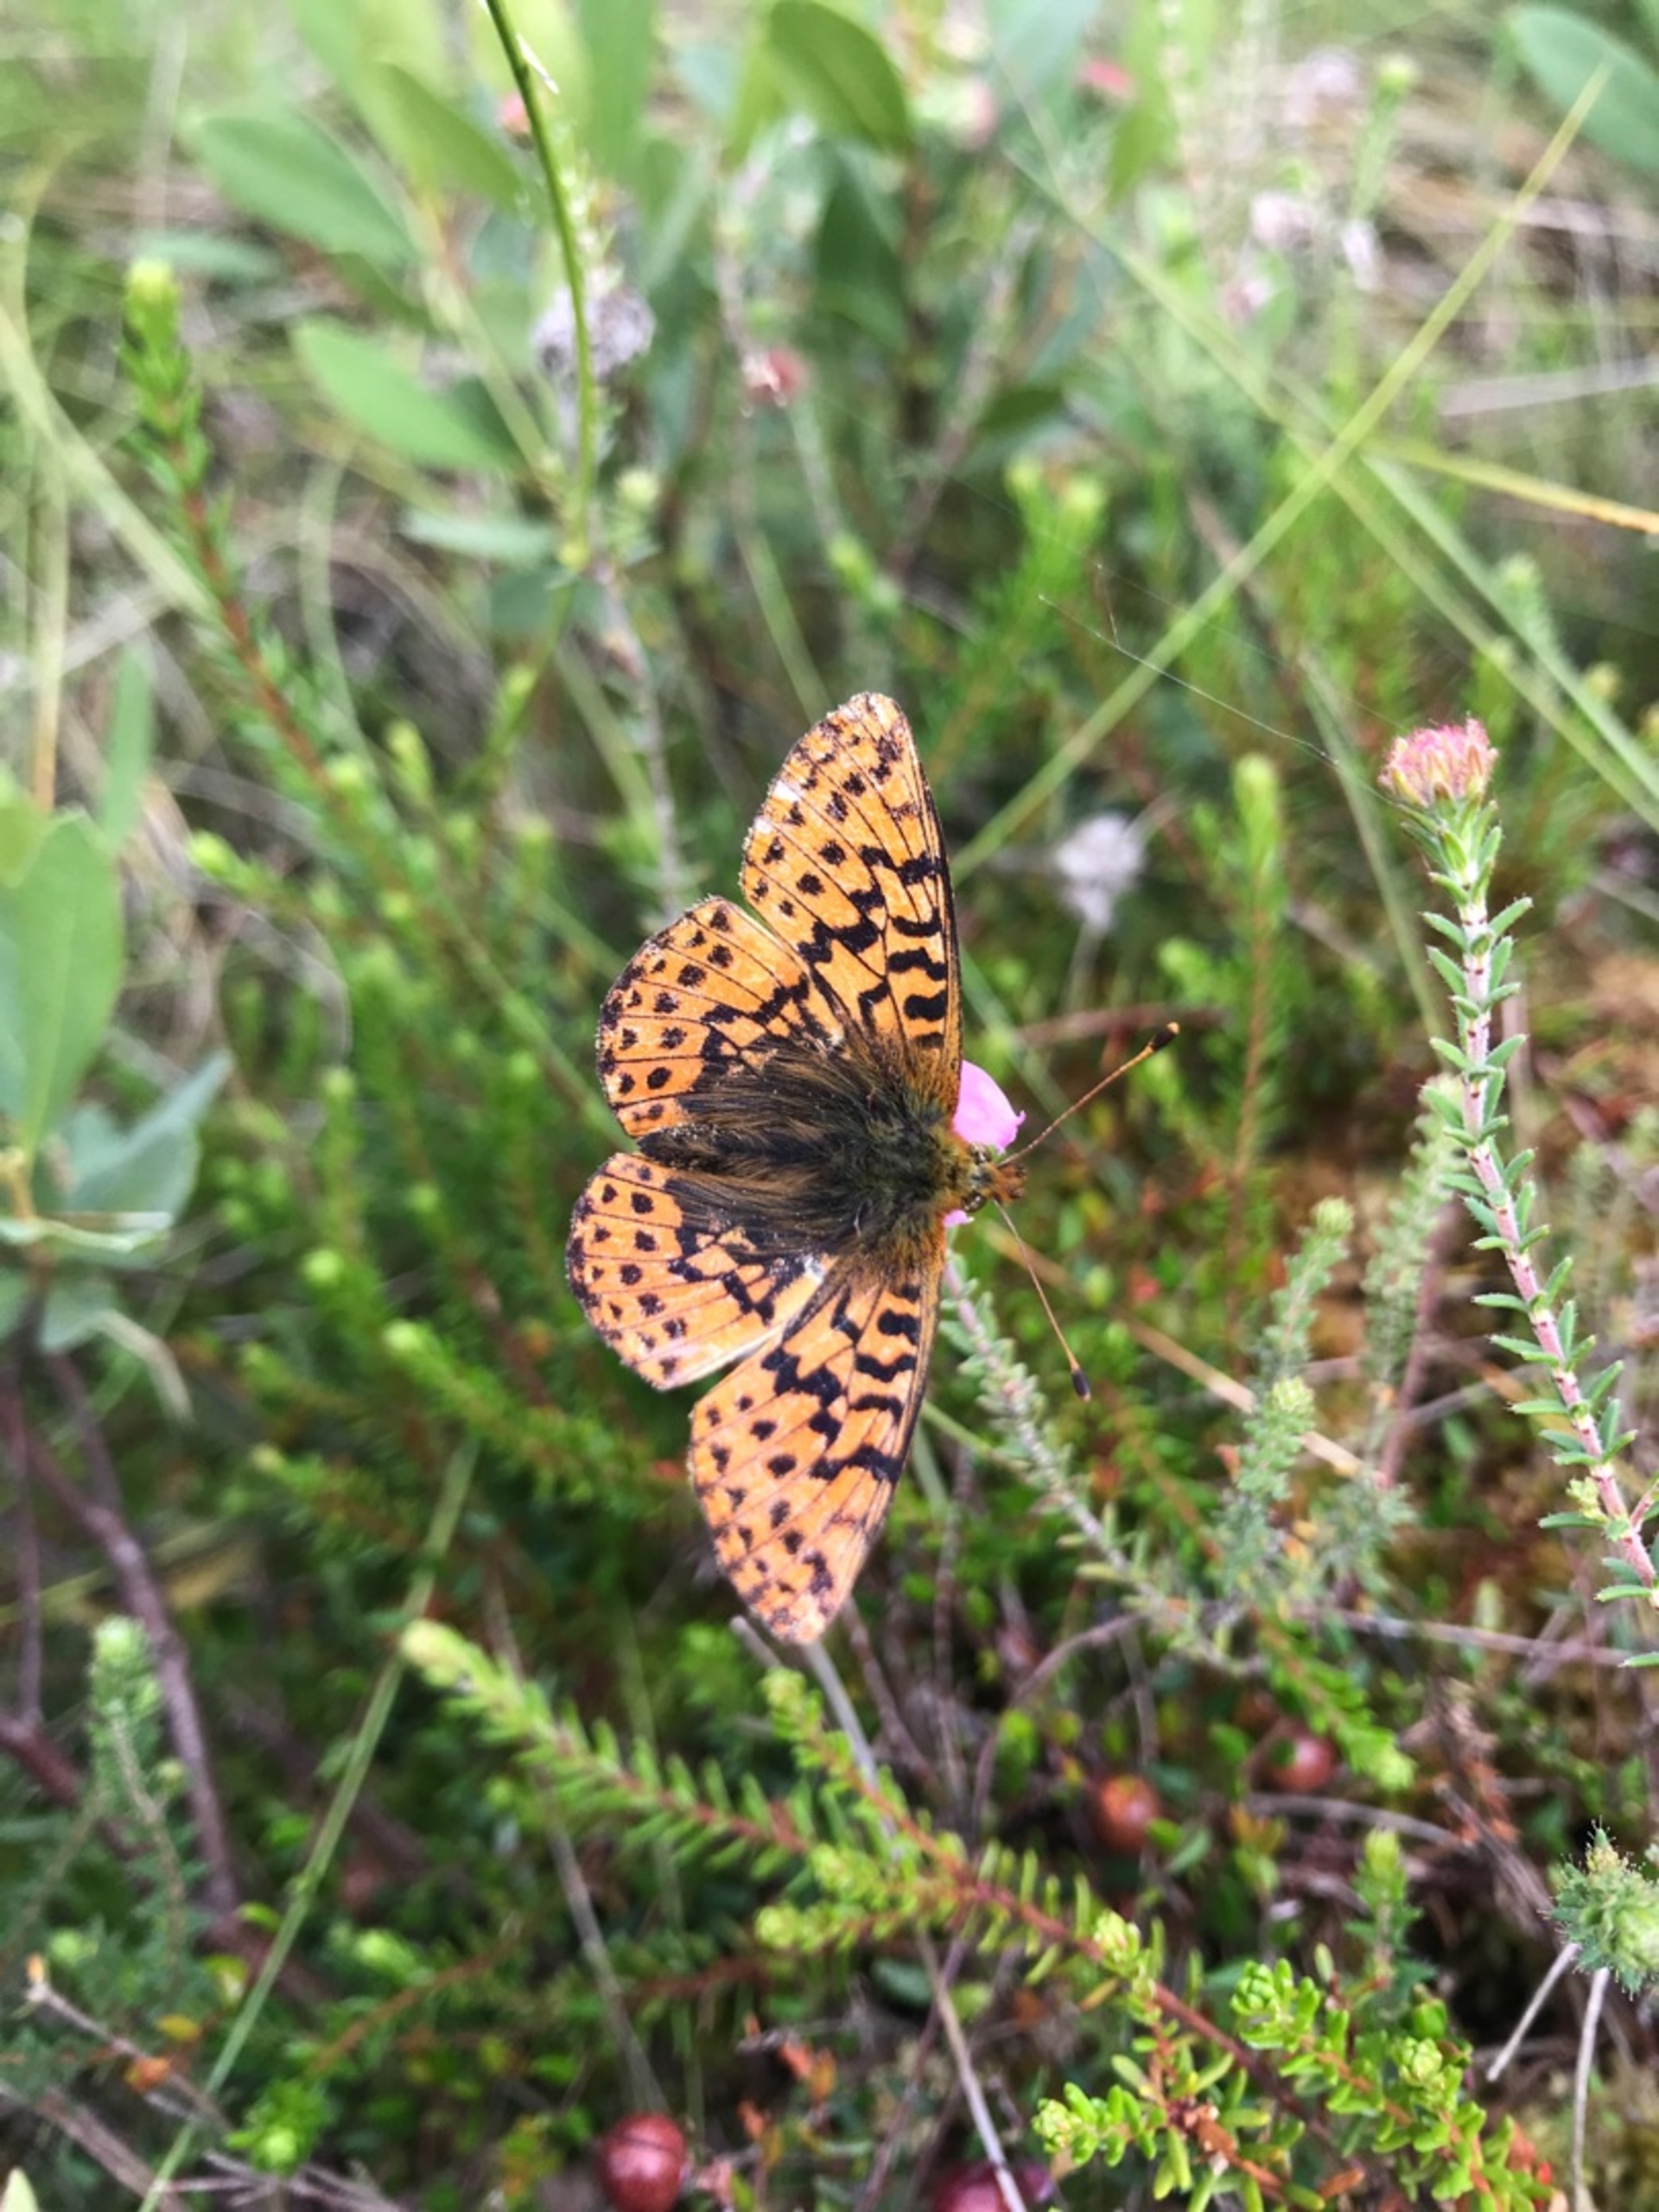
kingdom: Animalia
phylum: Arthropoda
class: Insecta
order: Lepidoptera
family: Nymphalidae
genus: Boloria
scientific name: Boloria aquilonaris
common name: Moseperlemorsommerfugl
